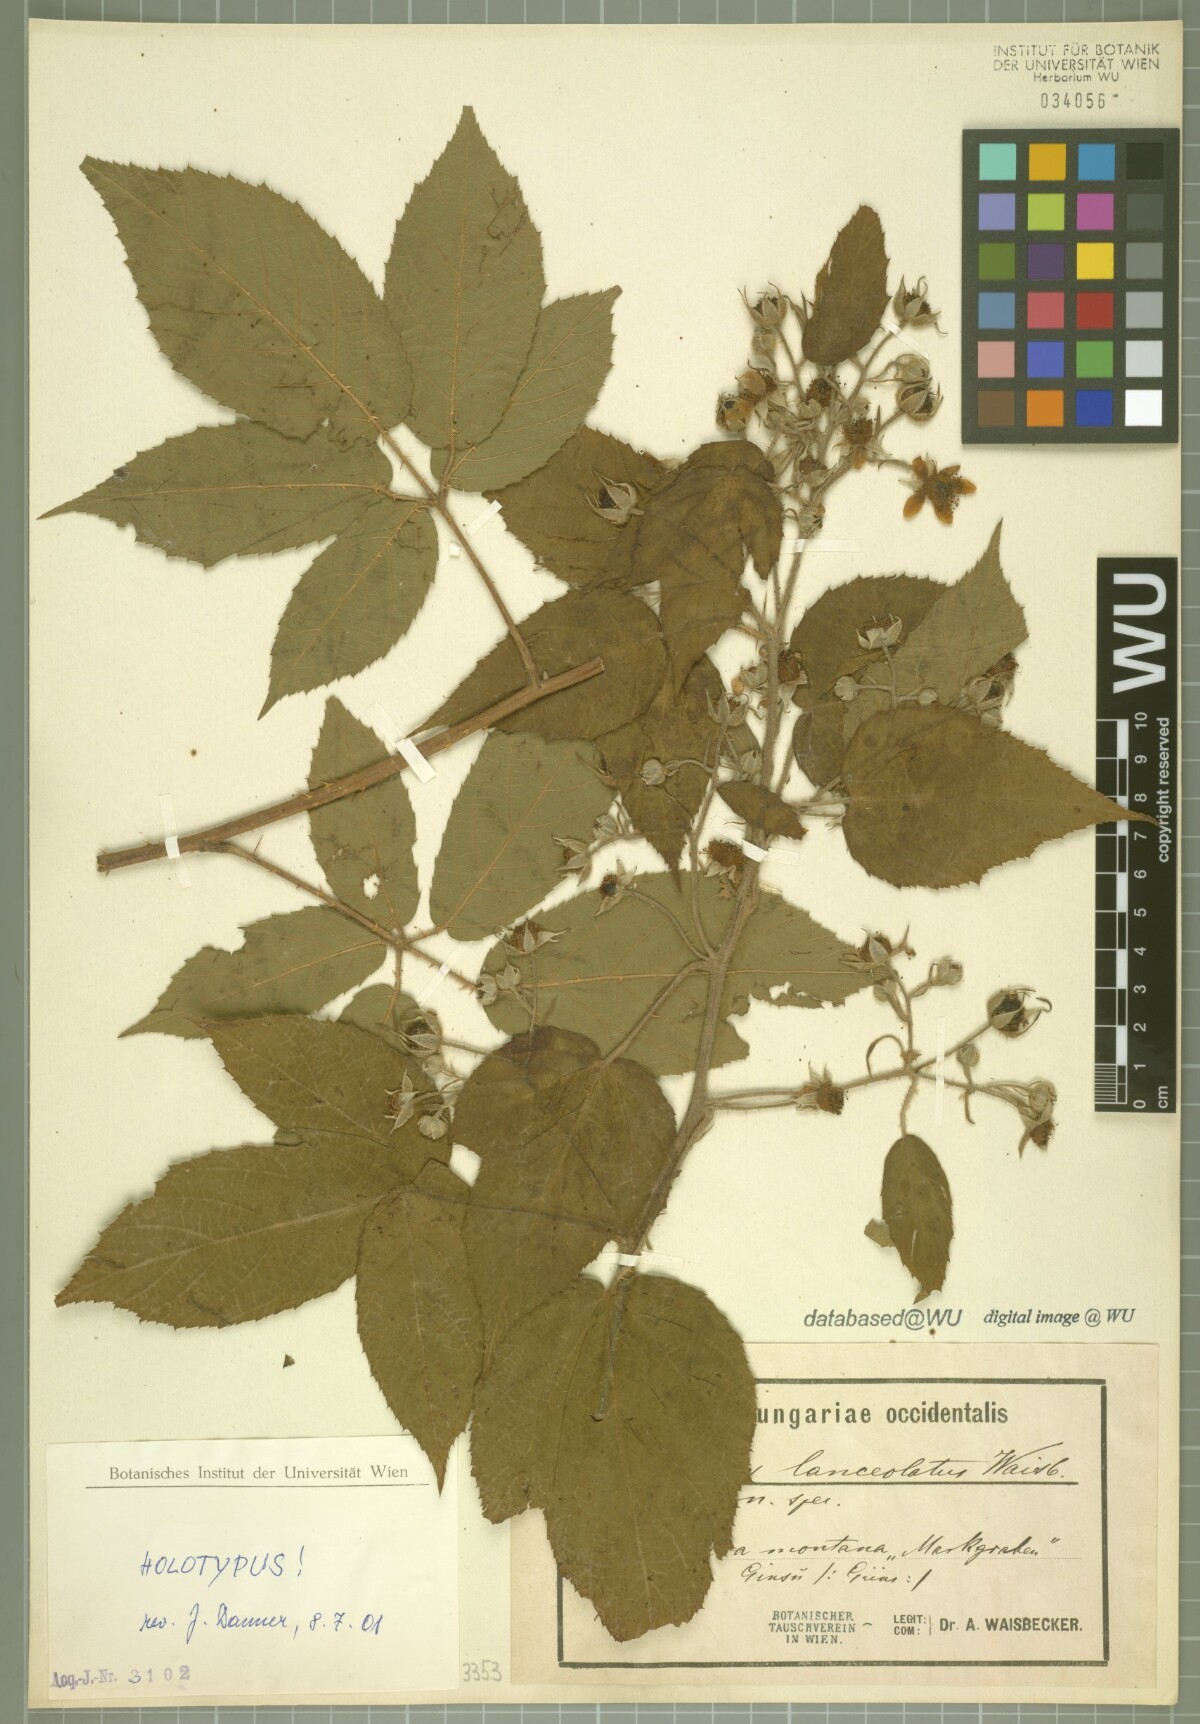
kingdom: Plantae
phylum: Tracheophyta
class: Magnoliopsida
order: Rosales
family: Rosaceae
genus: Rubus
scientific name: Rubus lanceolatus
